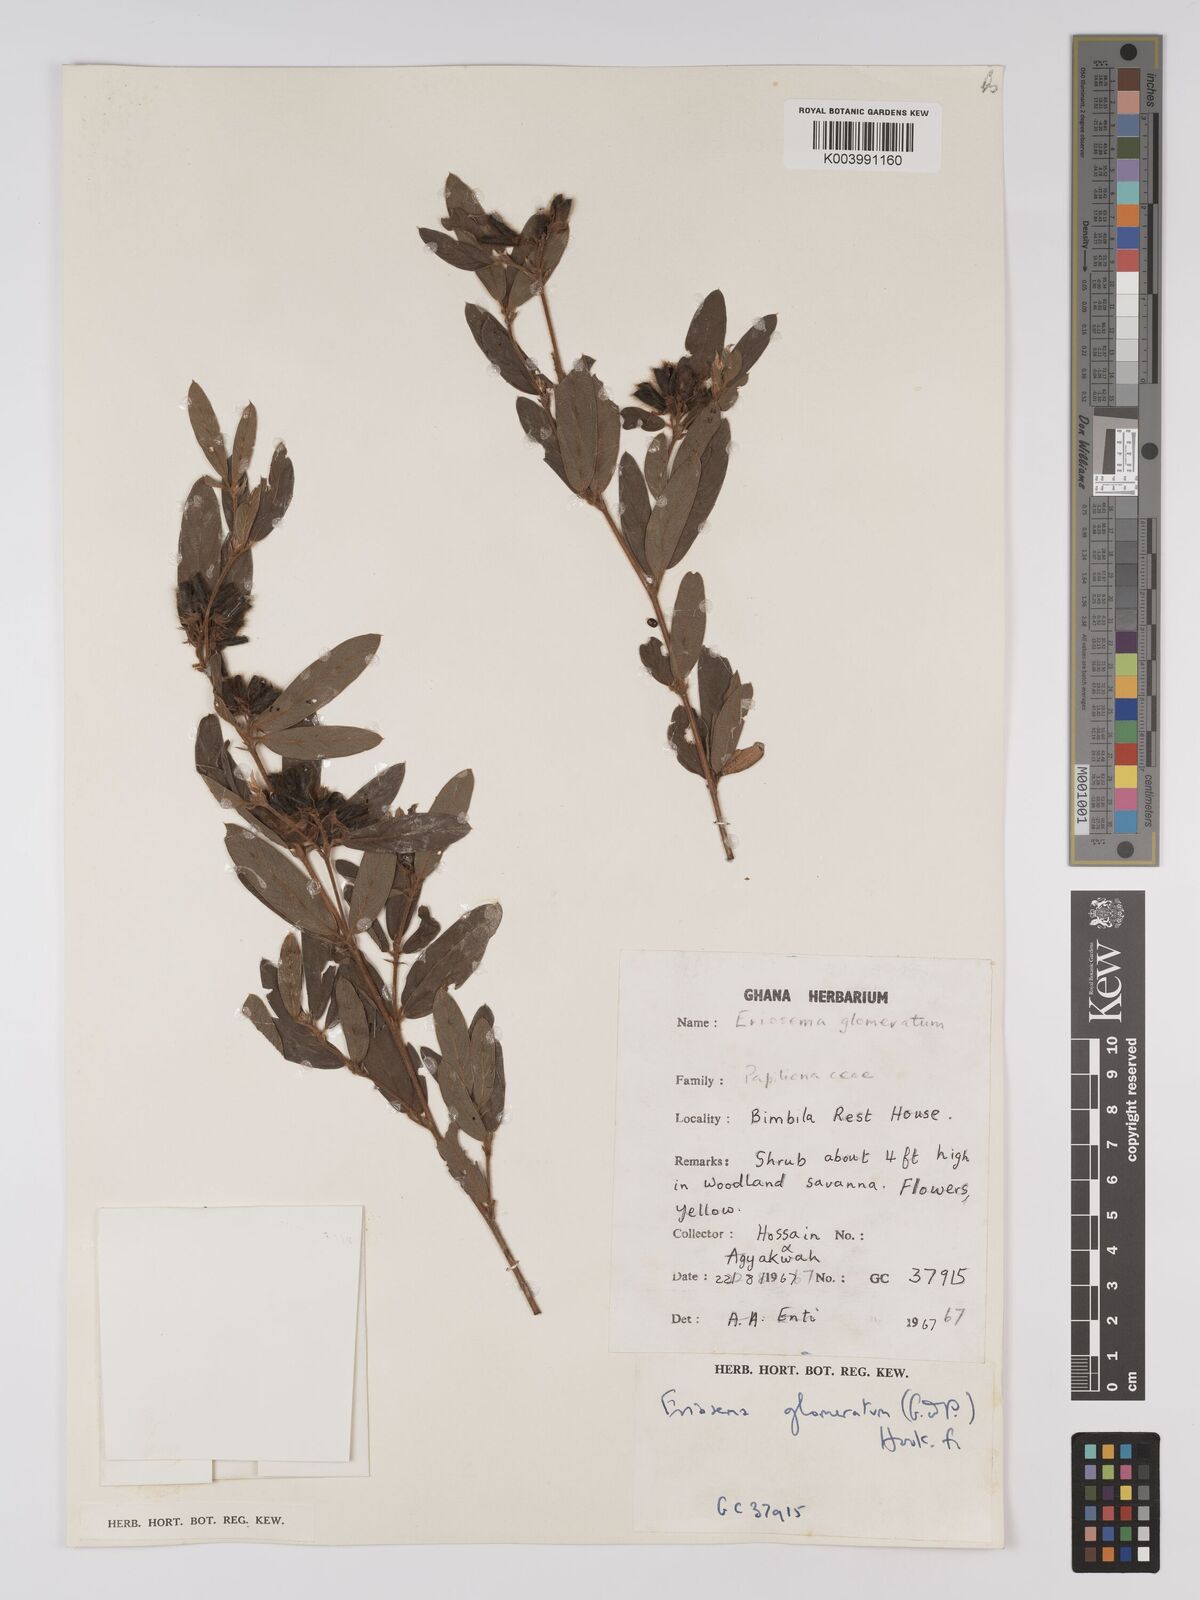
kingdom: Plantae
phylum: Tracheophyta
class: Magnoliopsida
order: Fabales
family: Fabaceae
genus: Eriosema
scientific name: Eriosema glomeratum
